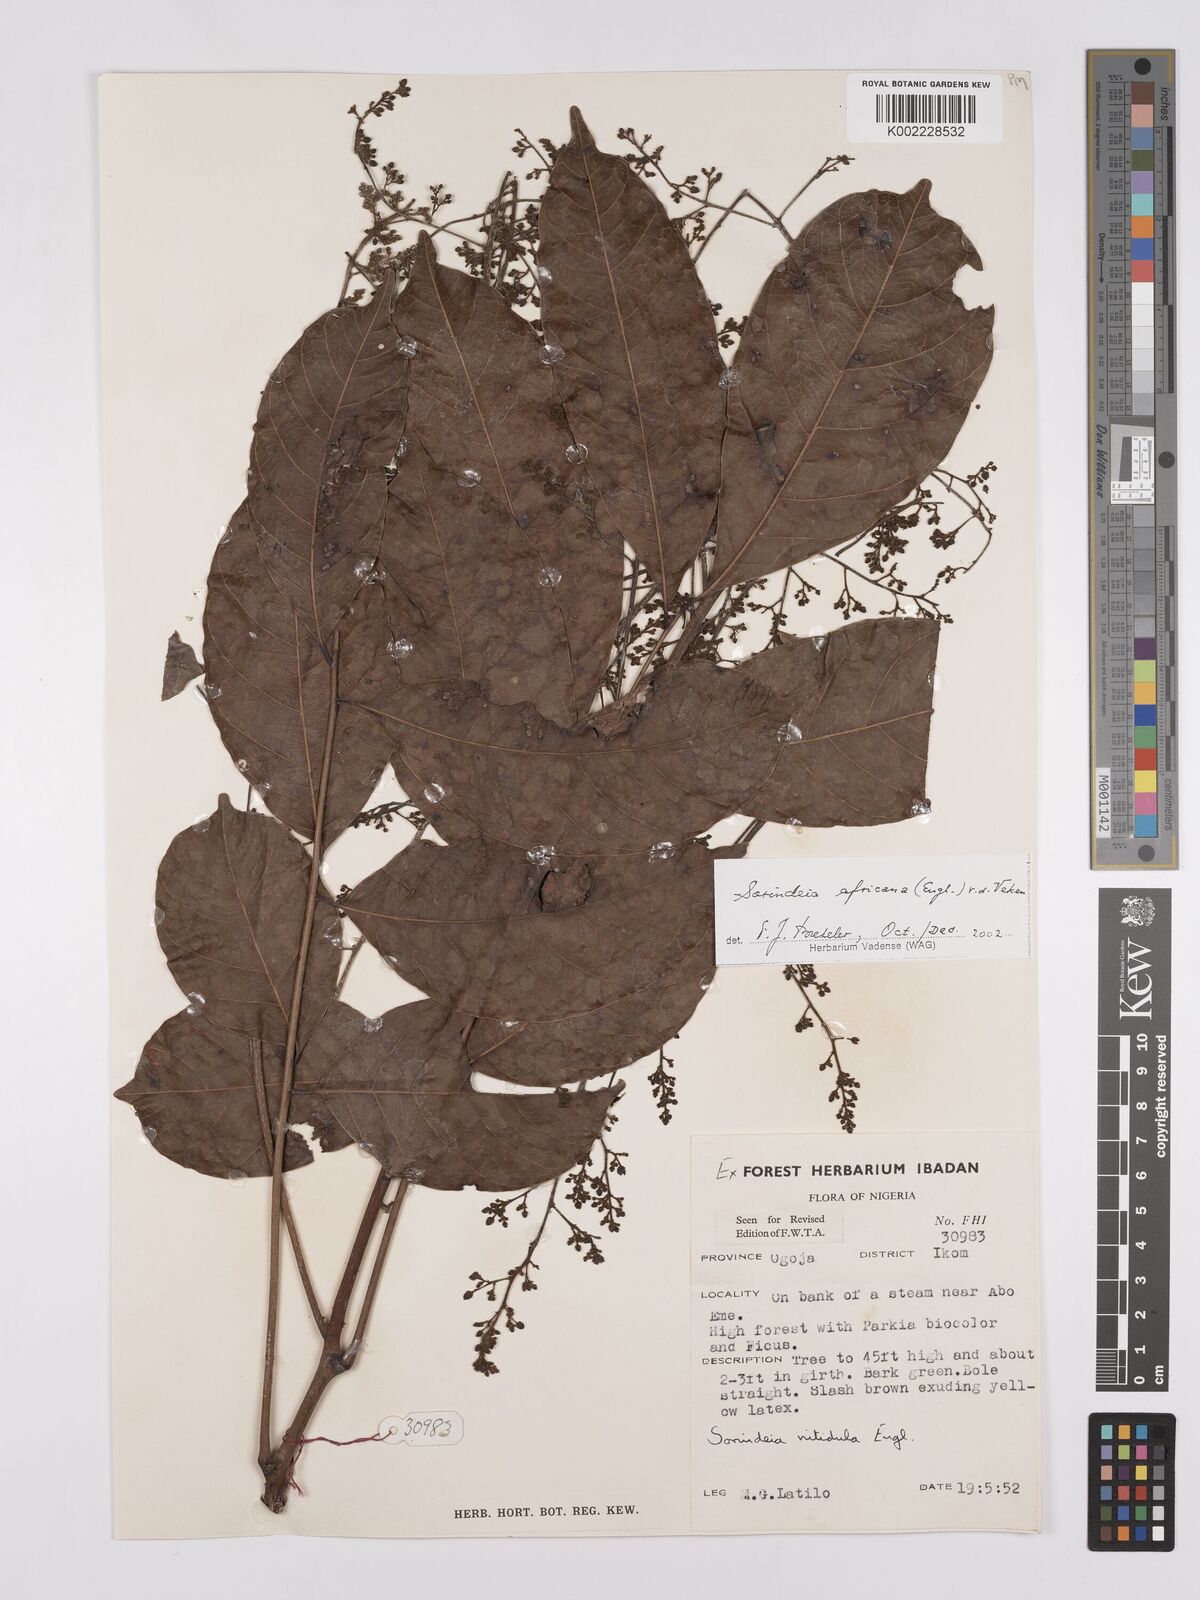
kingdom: Plantae
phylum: Tracheophyta
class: Magnoliopsida
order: Sapindales
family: Anacardiaceae
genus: Sorindeia
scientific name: Sorindeia africana
